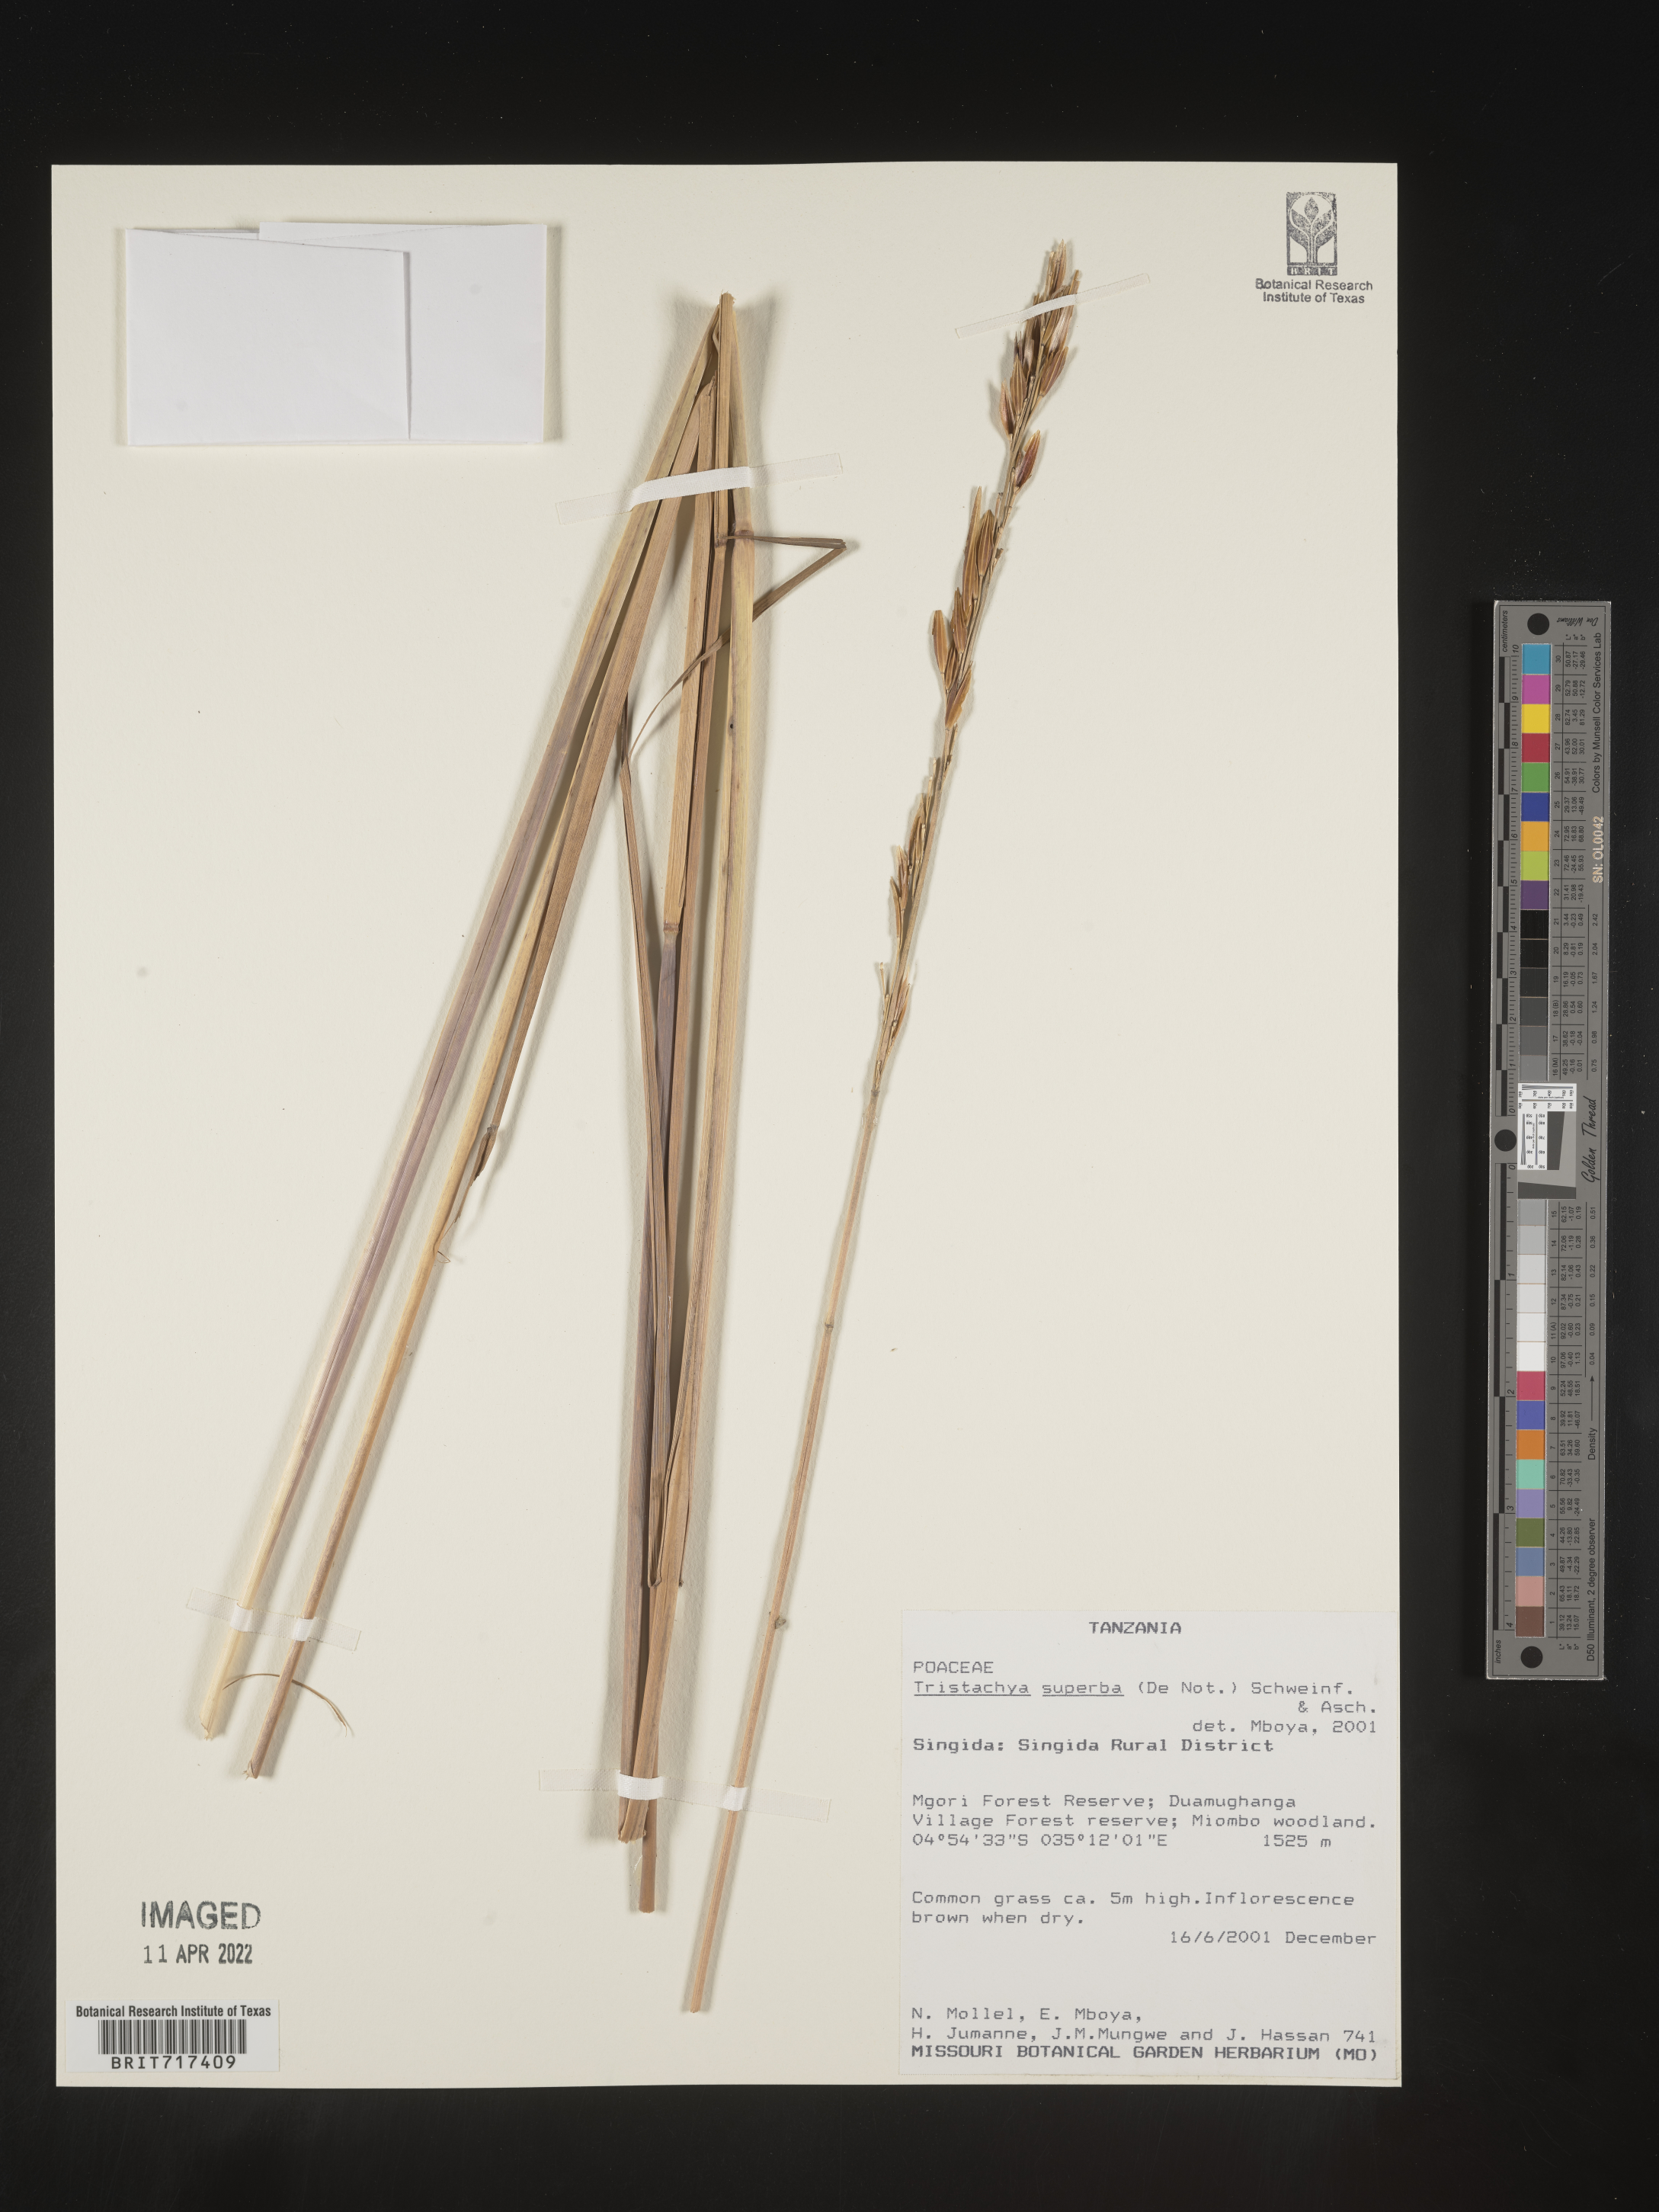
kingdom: Plantae
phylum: Tracheophyta
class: Liliopsida
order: Poales
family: Poaceae
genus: Tristachya
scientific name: Tristachya
